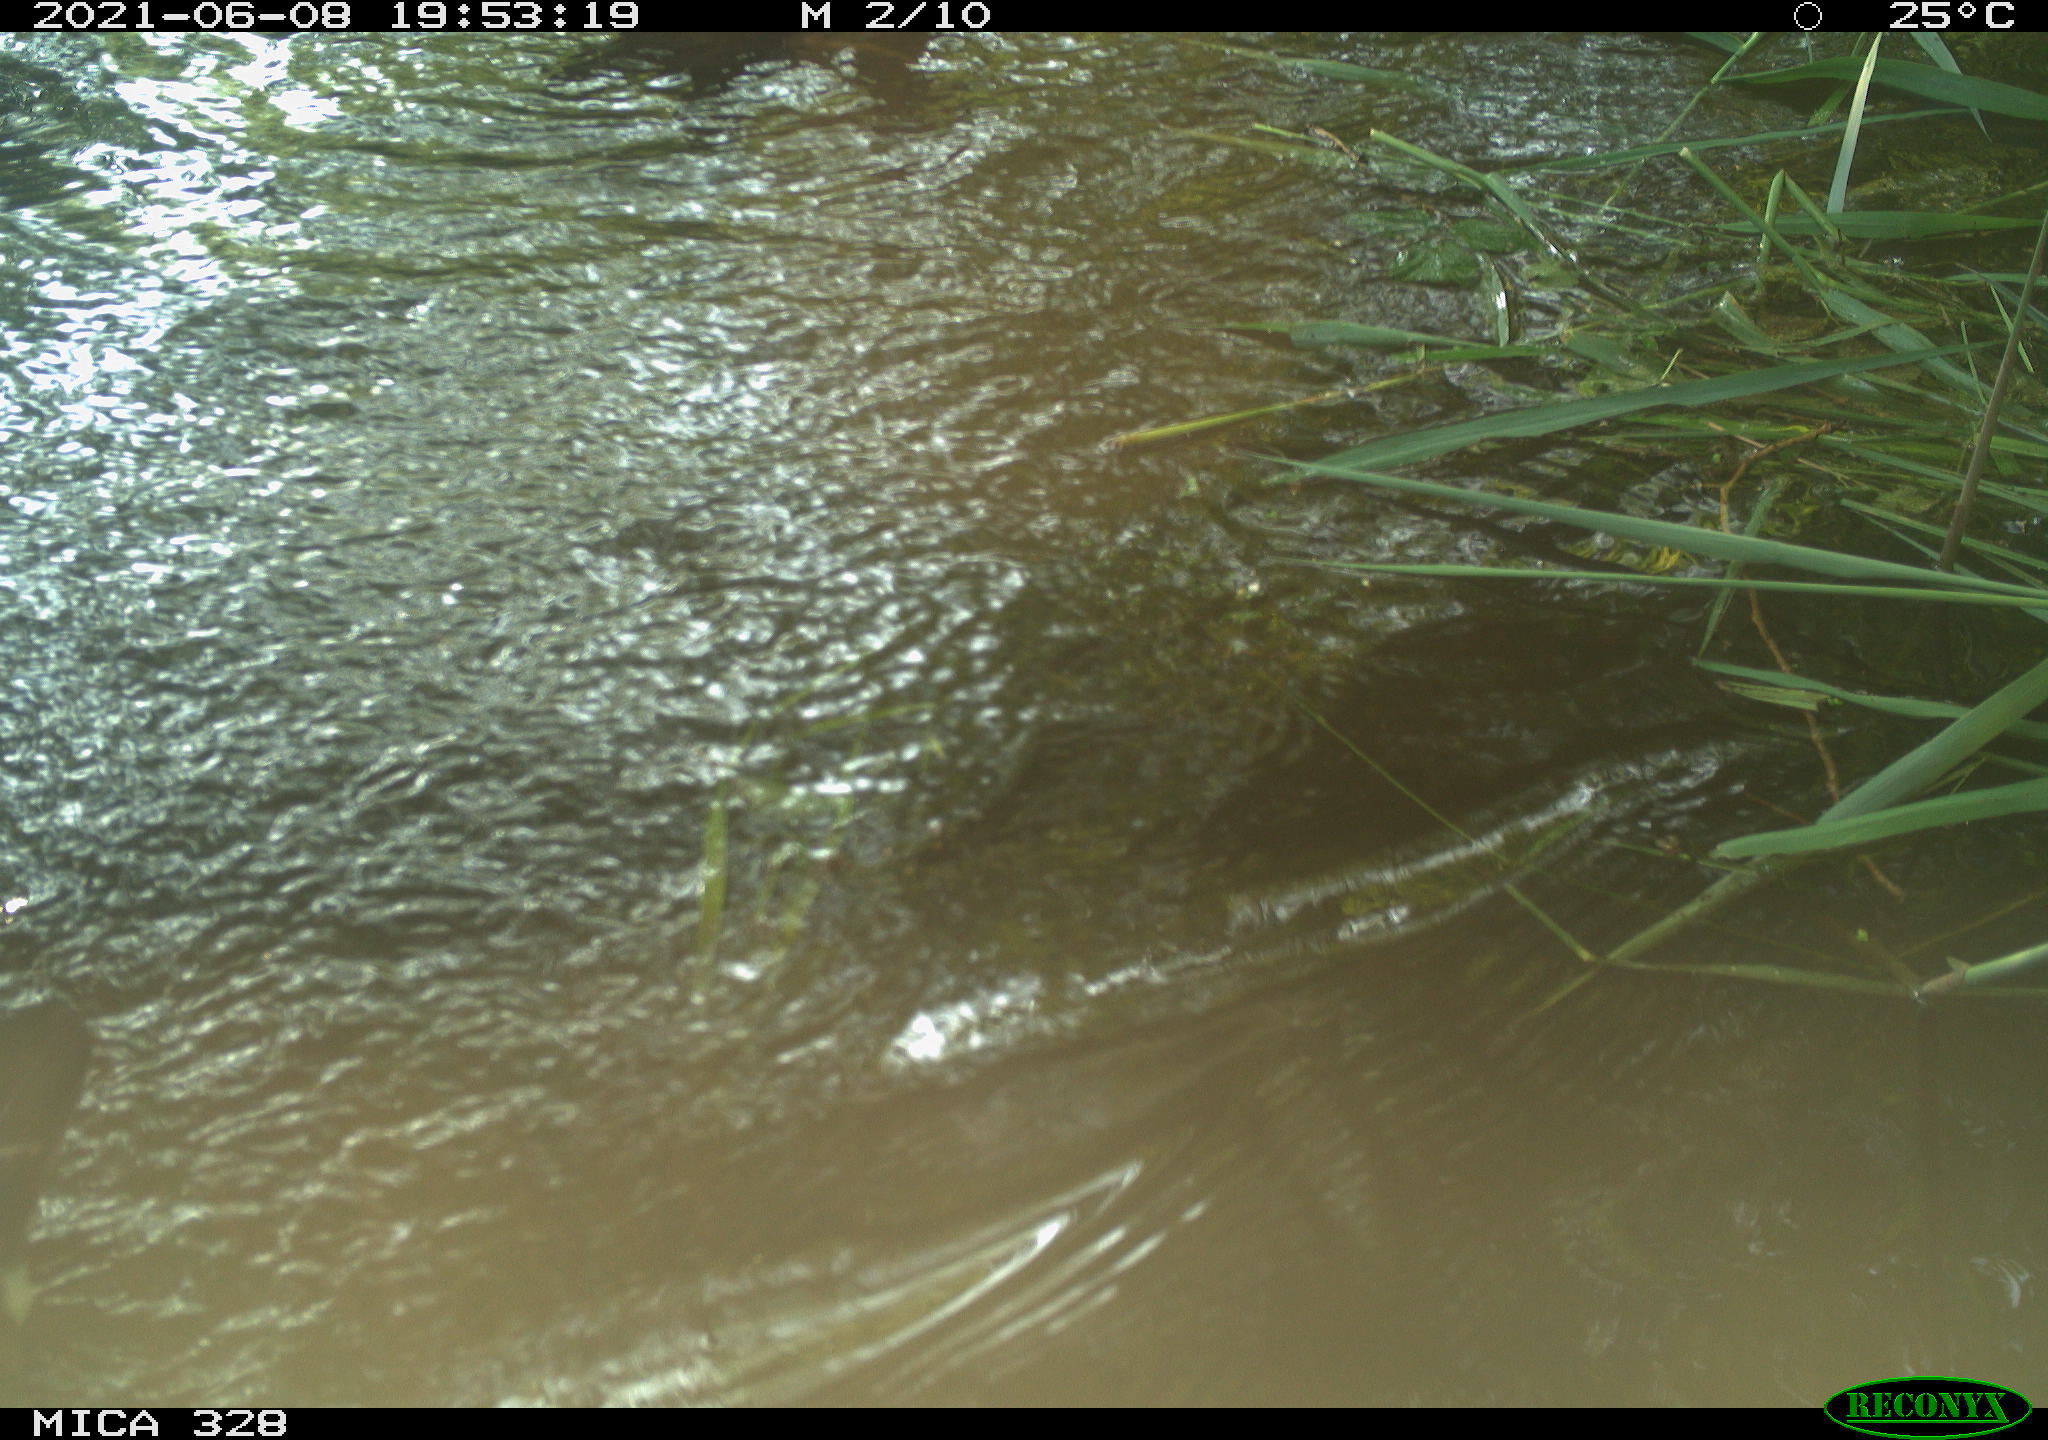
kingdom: Animalia
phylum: Chordata
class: Aves
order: Anseriformes
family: Anatidae
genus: Aix
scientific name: Aix galericulata
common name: Mandarin duck
